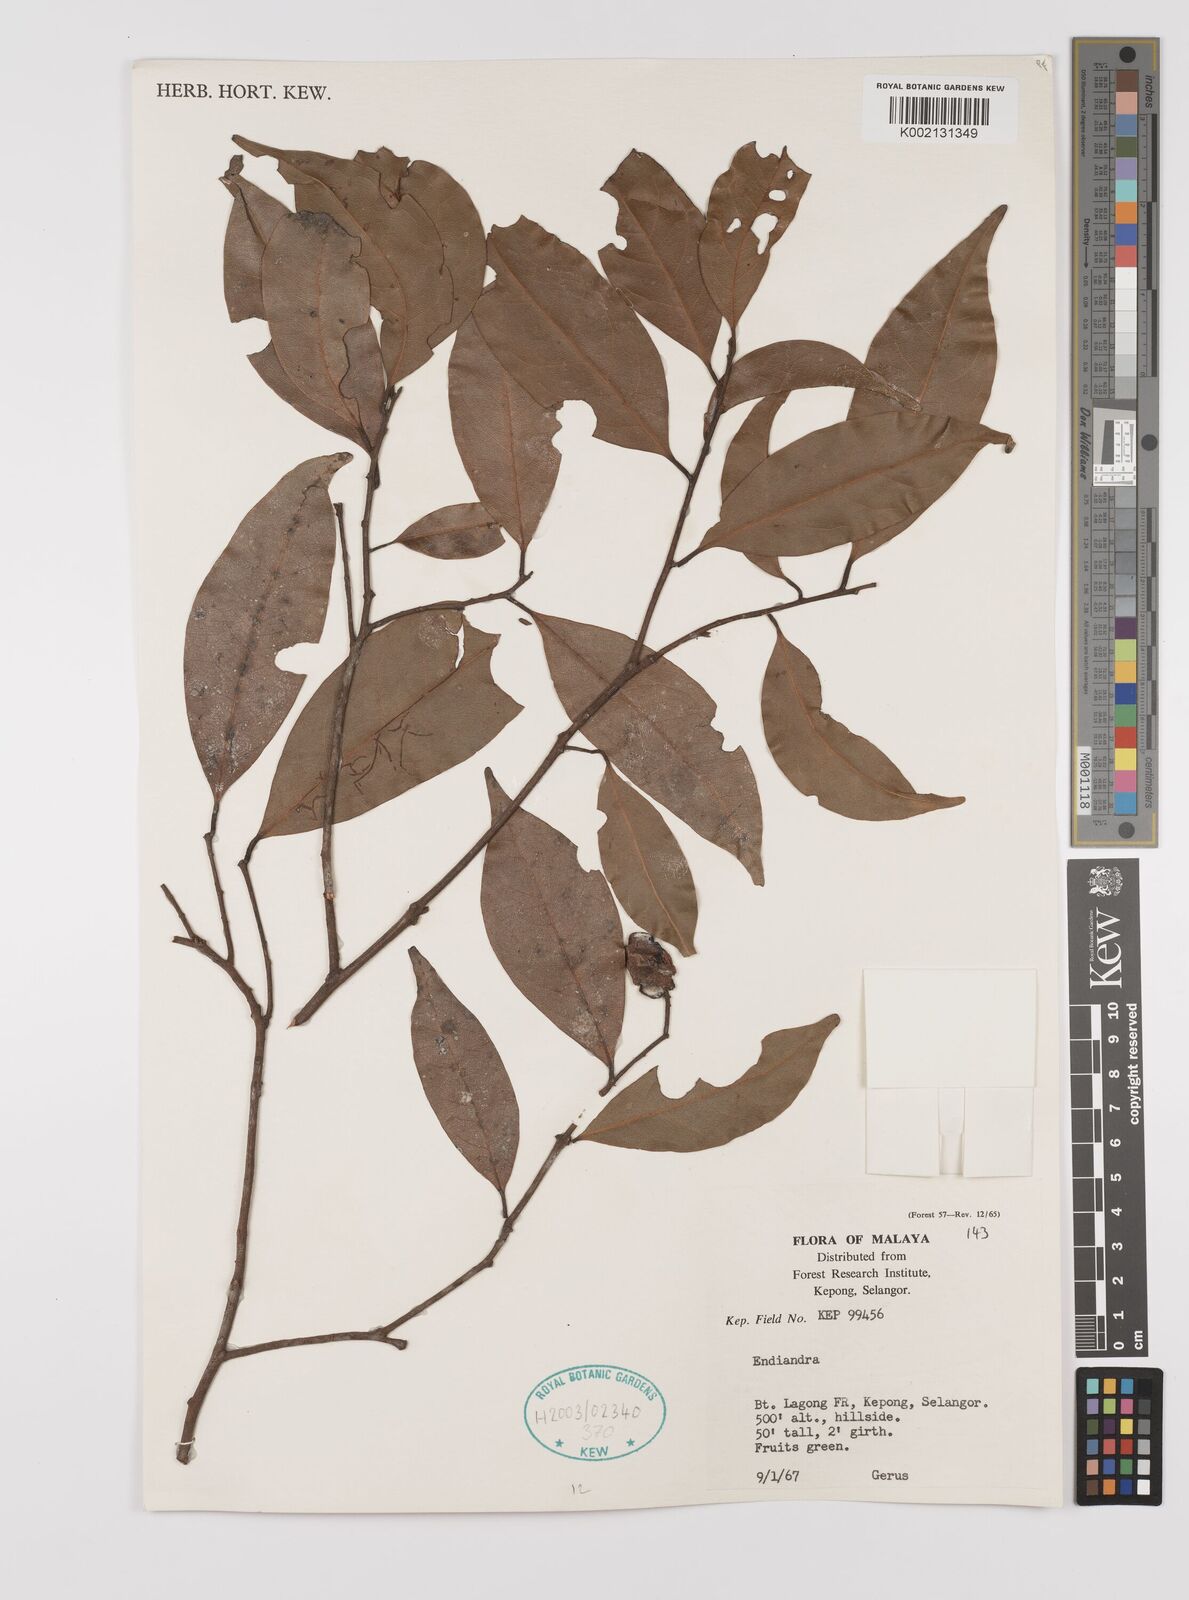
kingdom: Plantae
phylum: Tracheophyta
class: Magnoliopsida
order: Laurales
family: Lauraceae
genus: Endiandra
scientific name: Endiandra
